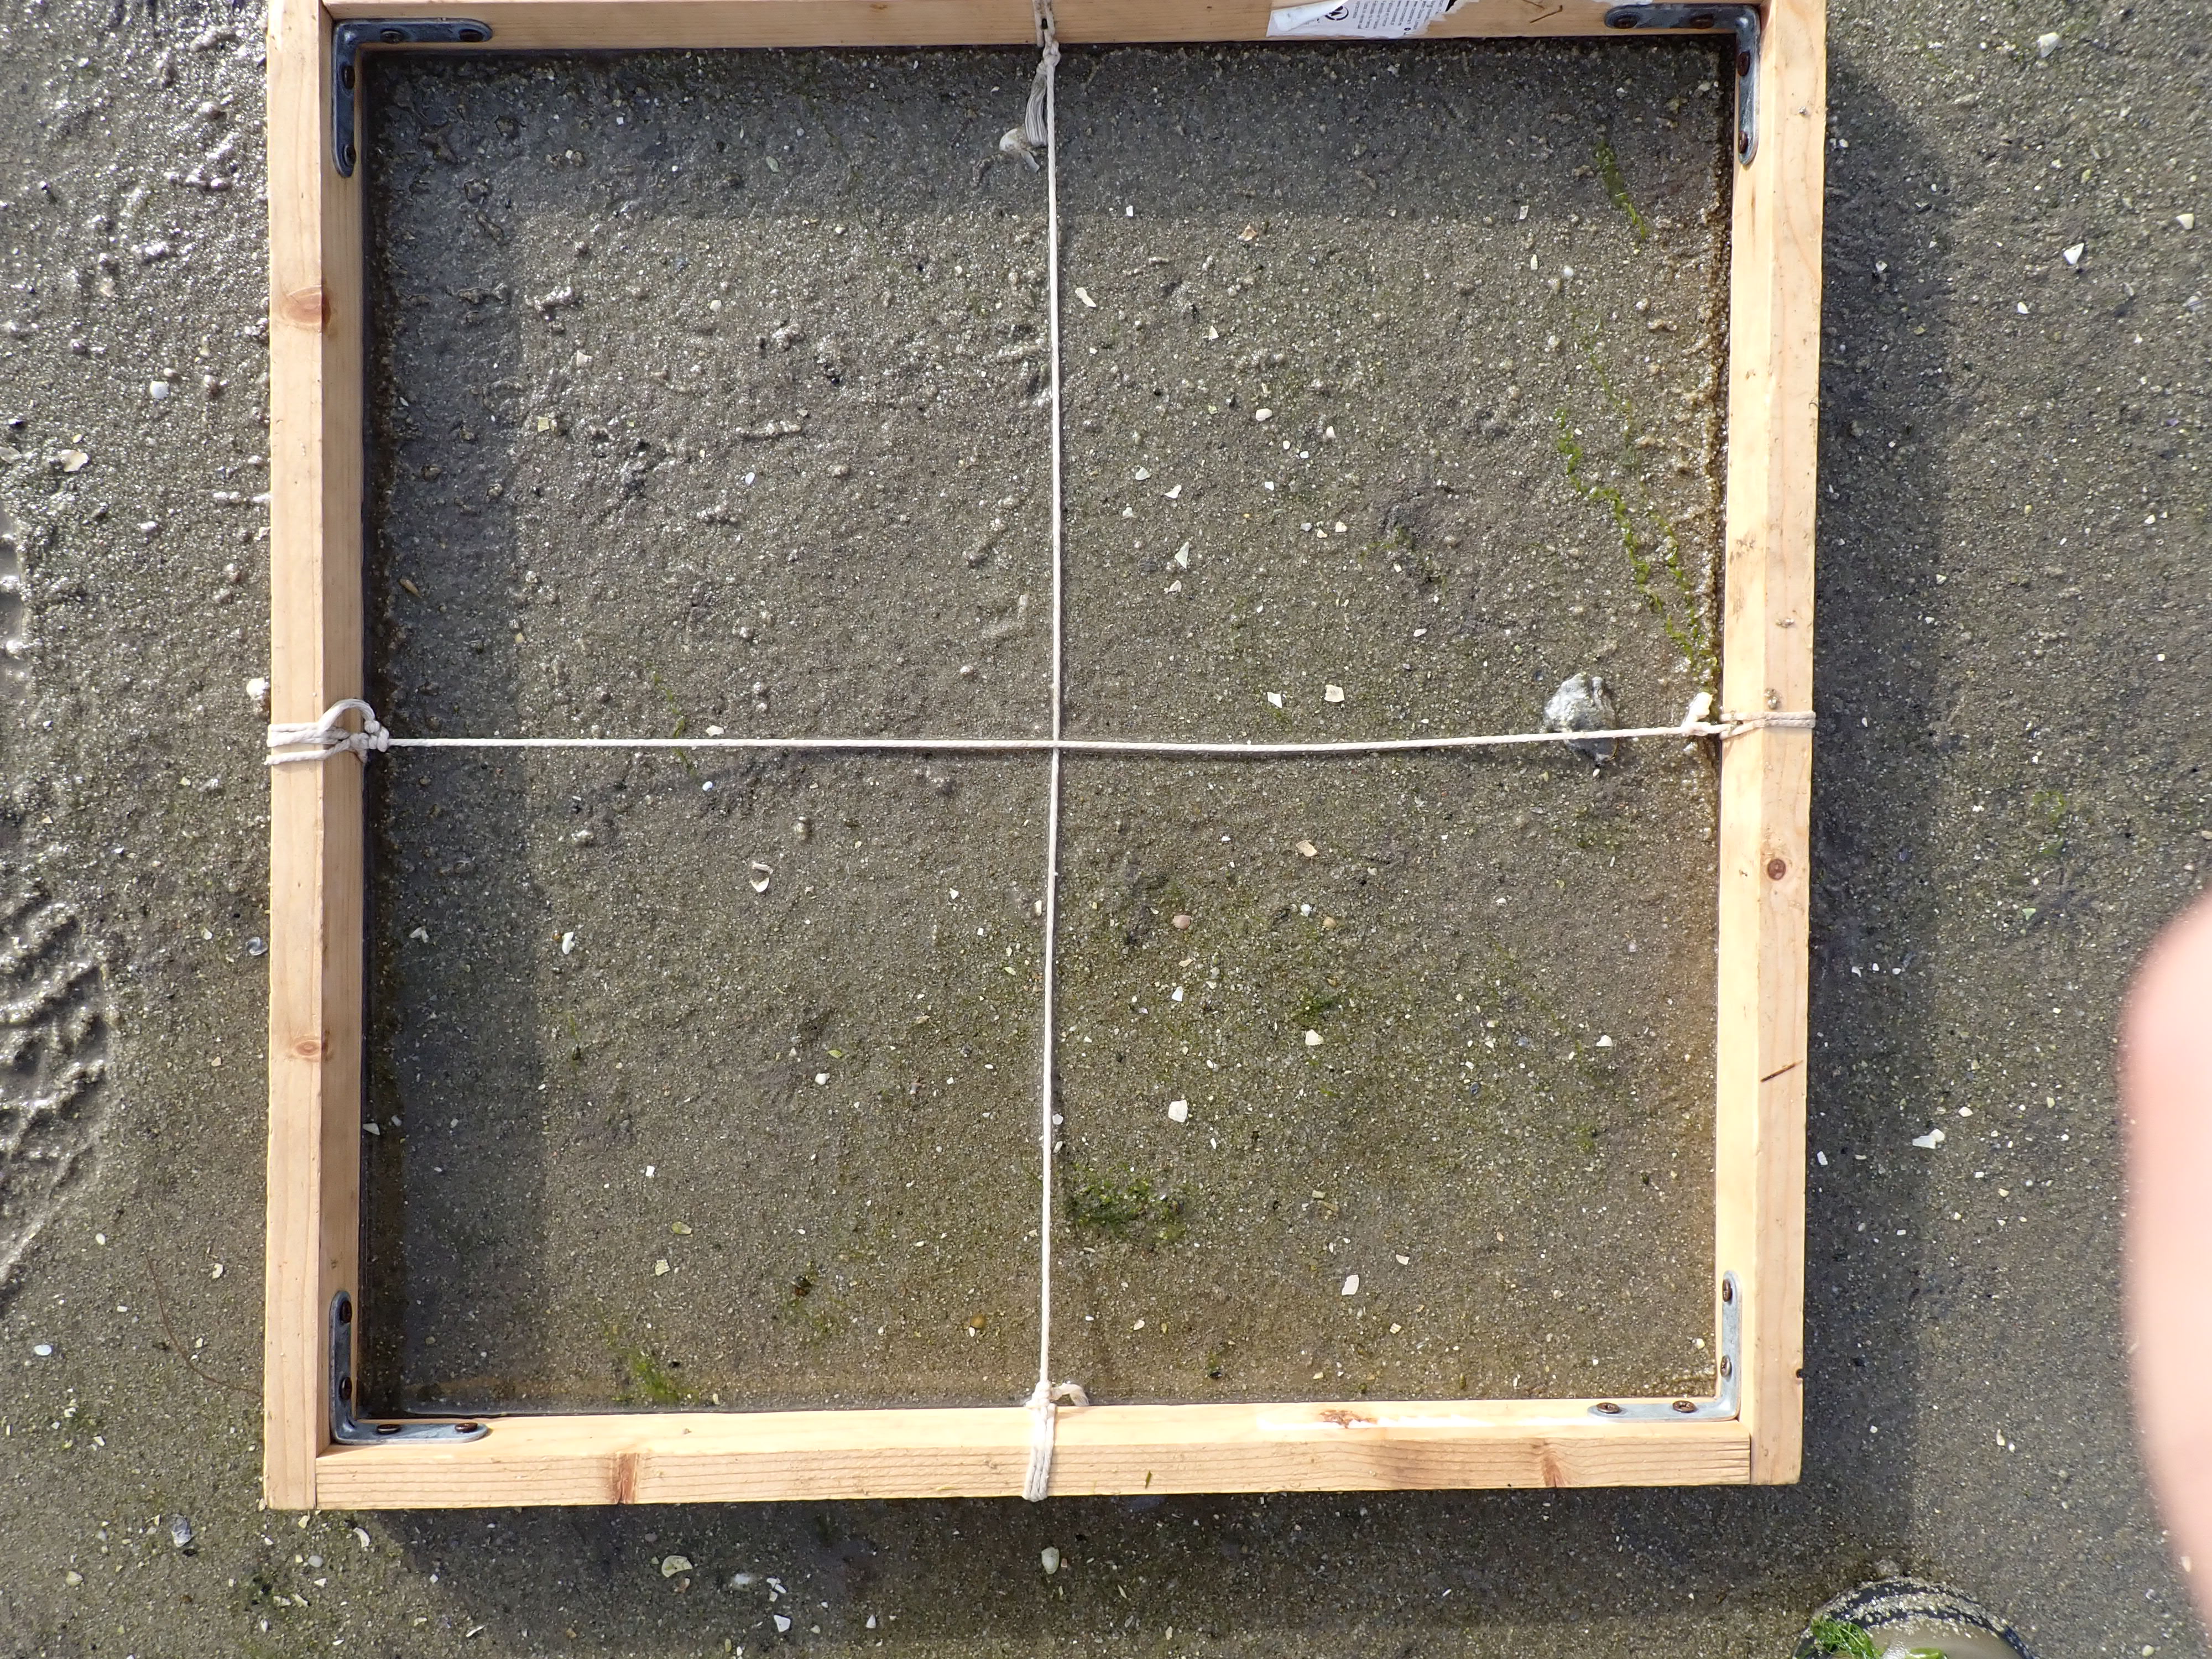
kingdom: Plantae
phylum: Chlorophyta
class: Ulvophyceae
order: Ulvales
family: Ulvaceae
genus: Ulva
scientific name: Ulva
